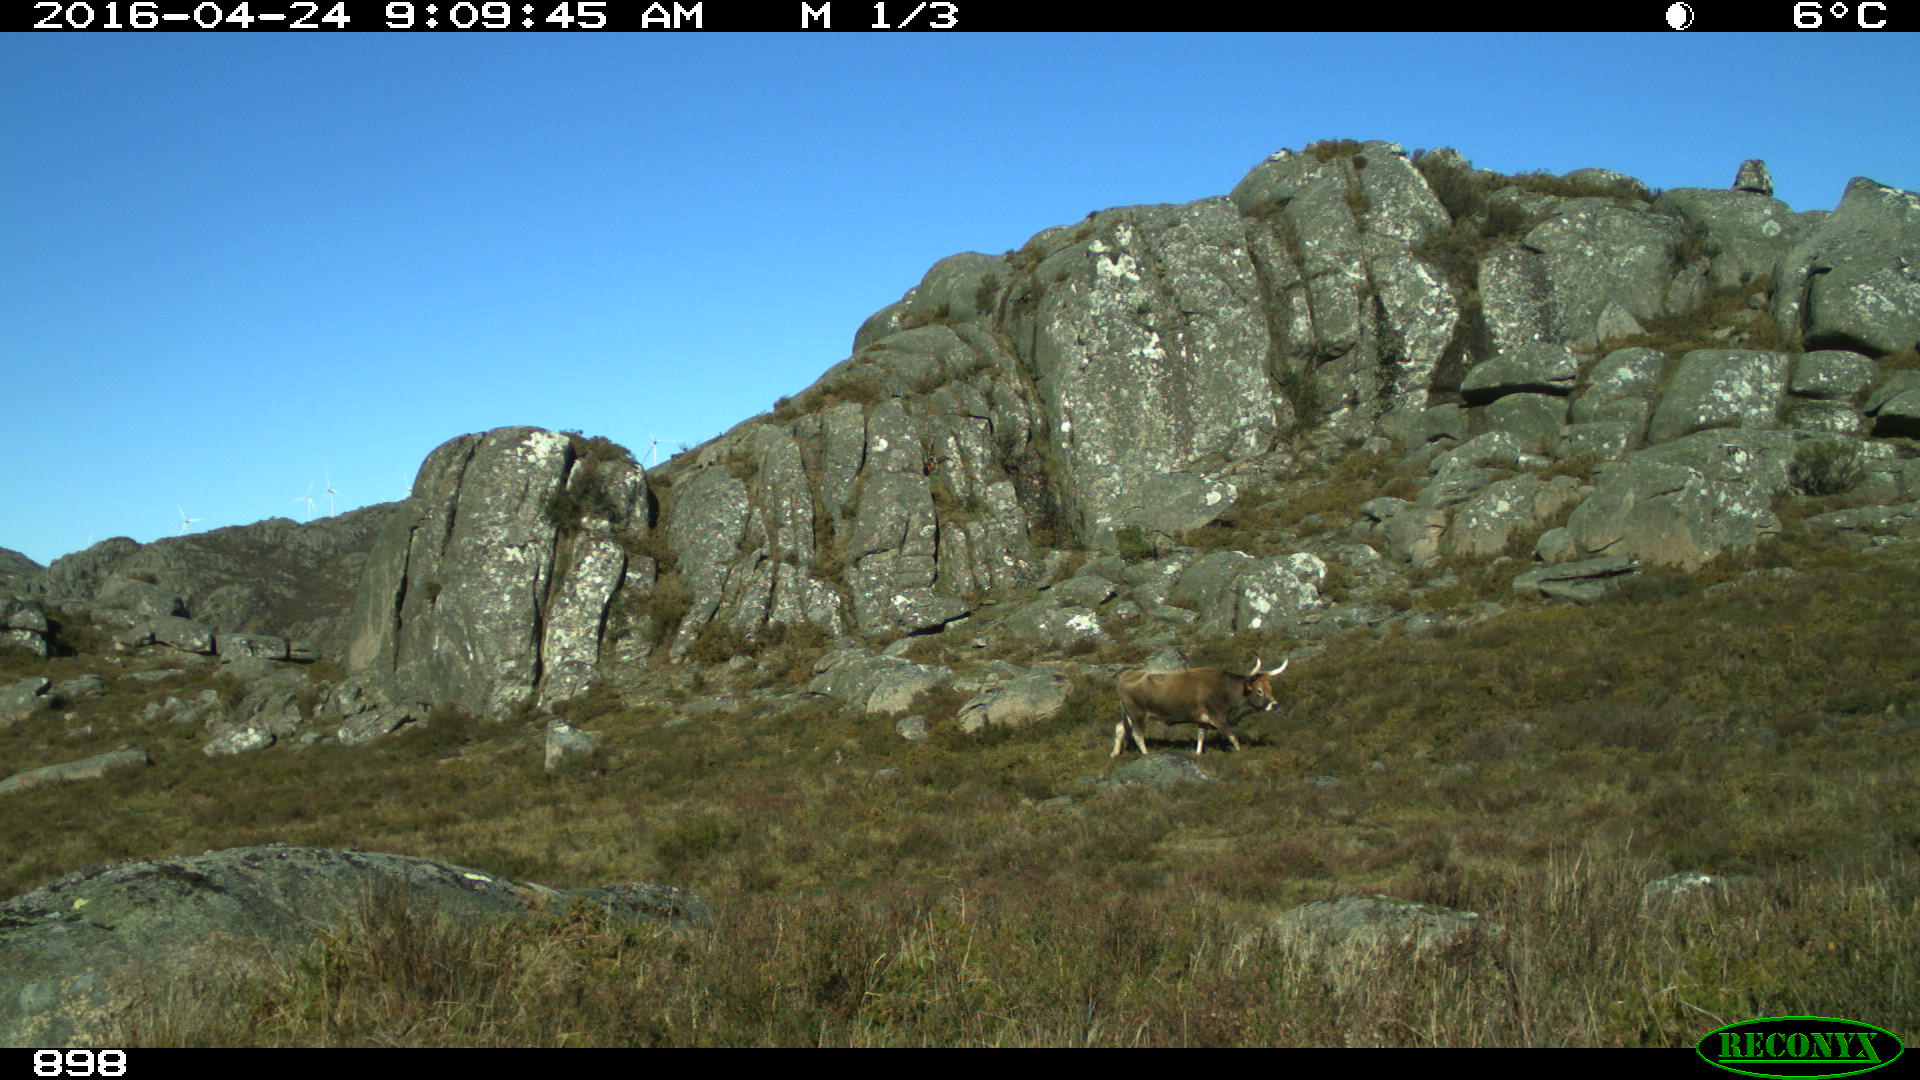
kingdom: Animalia
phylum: Chordata
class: Mammalia
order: Artiodactyla
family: Bovidae
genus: Bos
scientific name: Bos taurus
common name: Domesticated cattle
